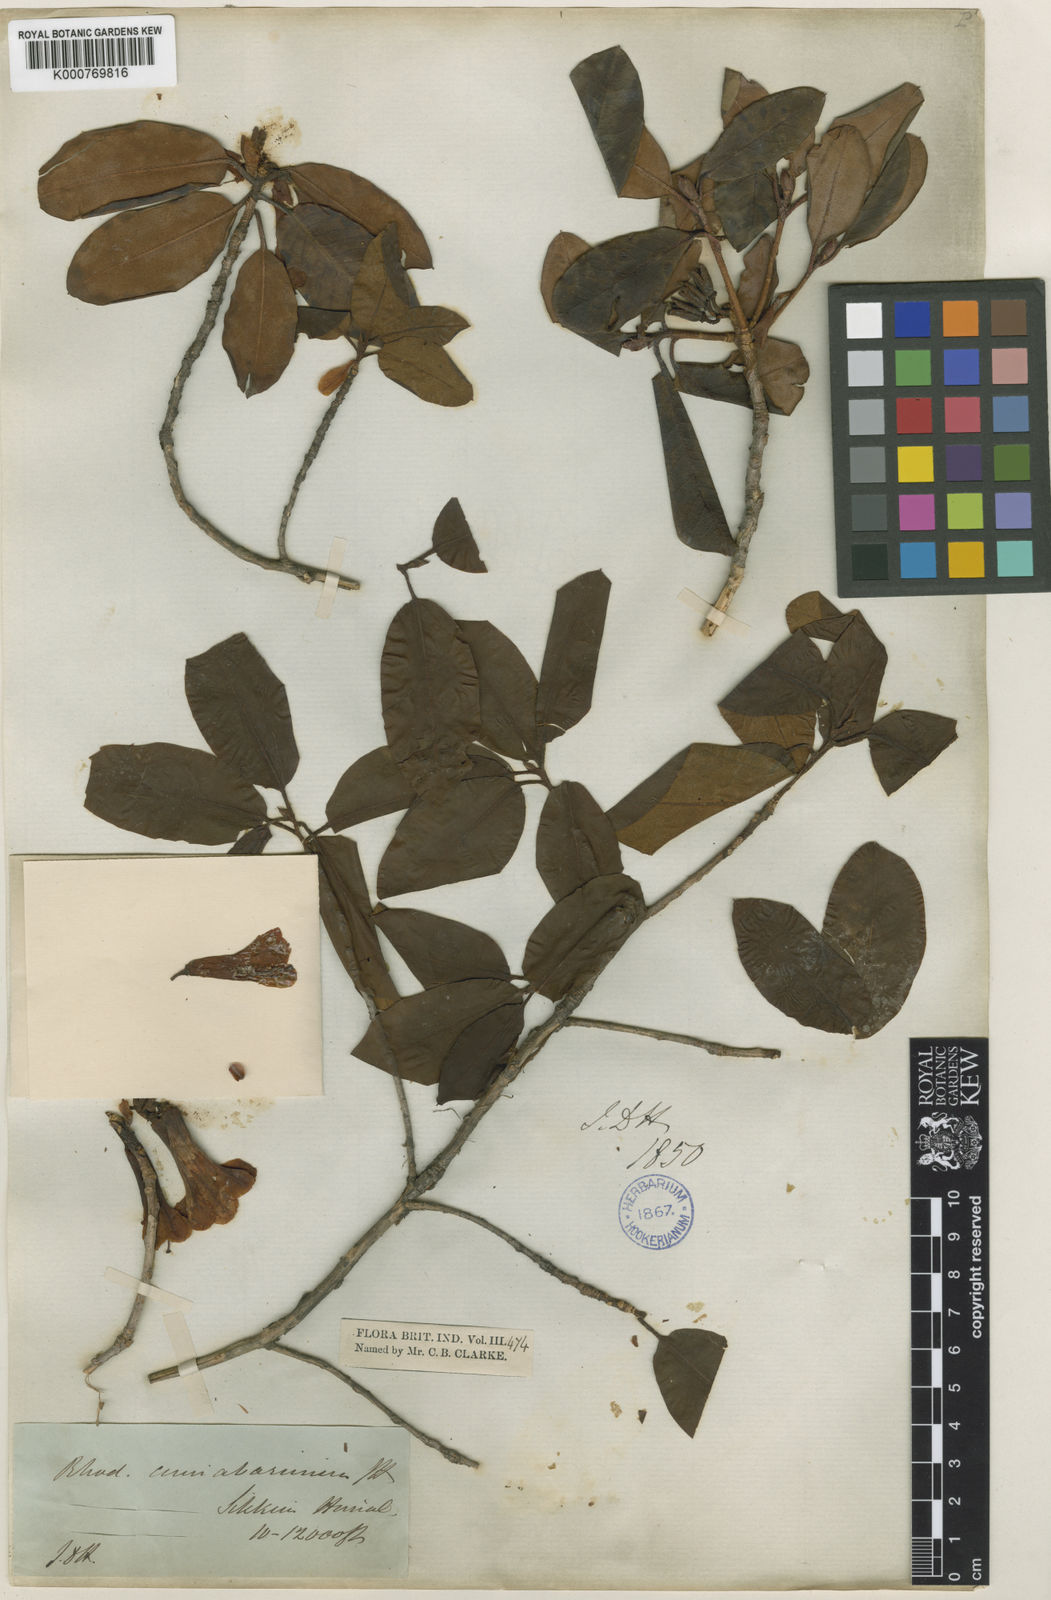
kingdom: Plantae
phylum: Tracheophyta
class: Magnoliopsida
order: Ericales
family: Ericaceae
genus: Rhododendron
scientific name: Rhododendron cinnabarinum
